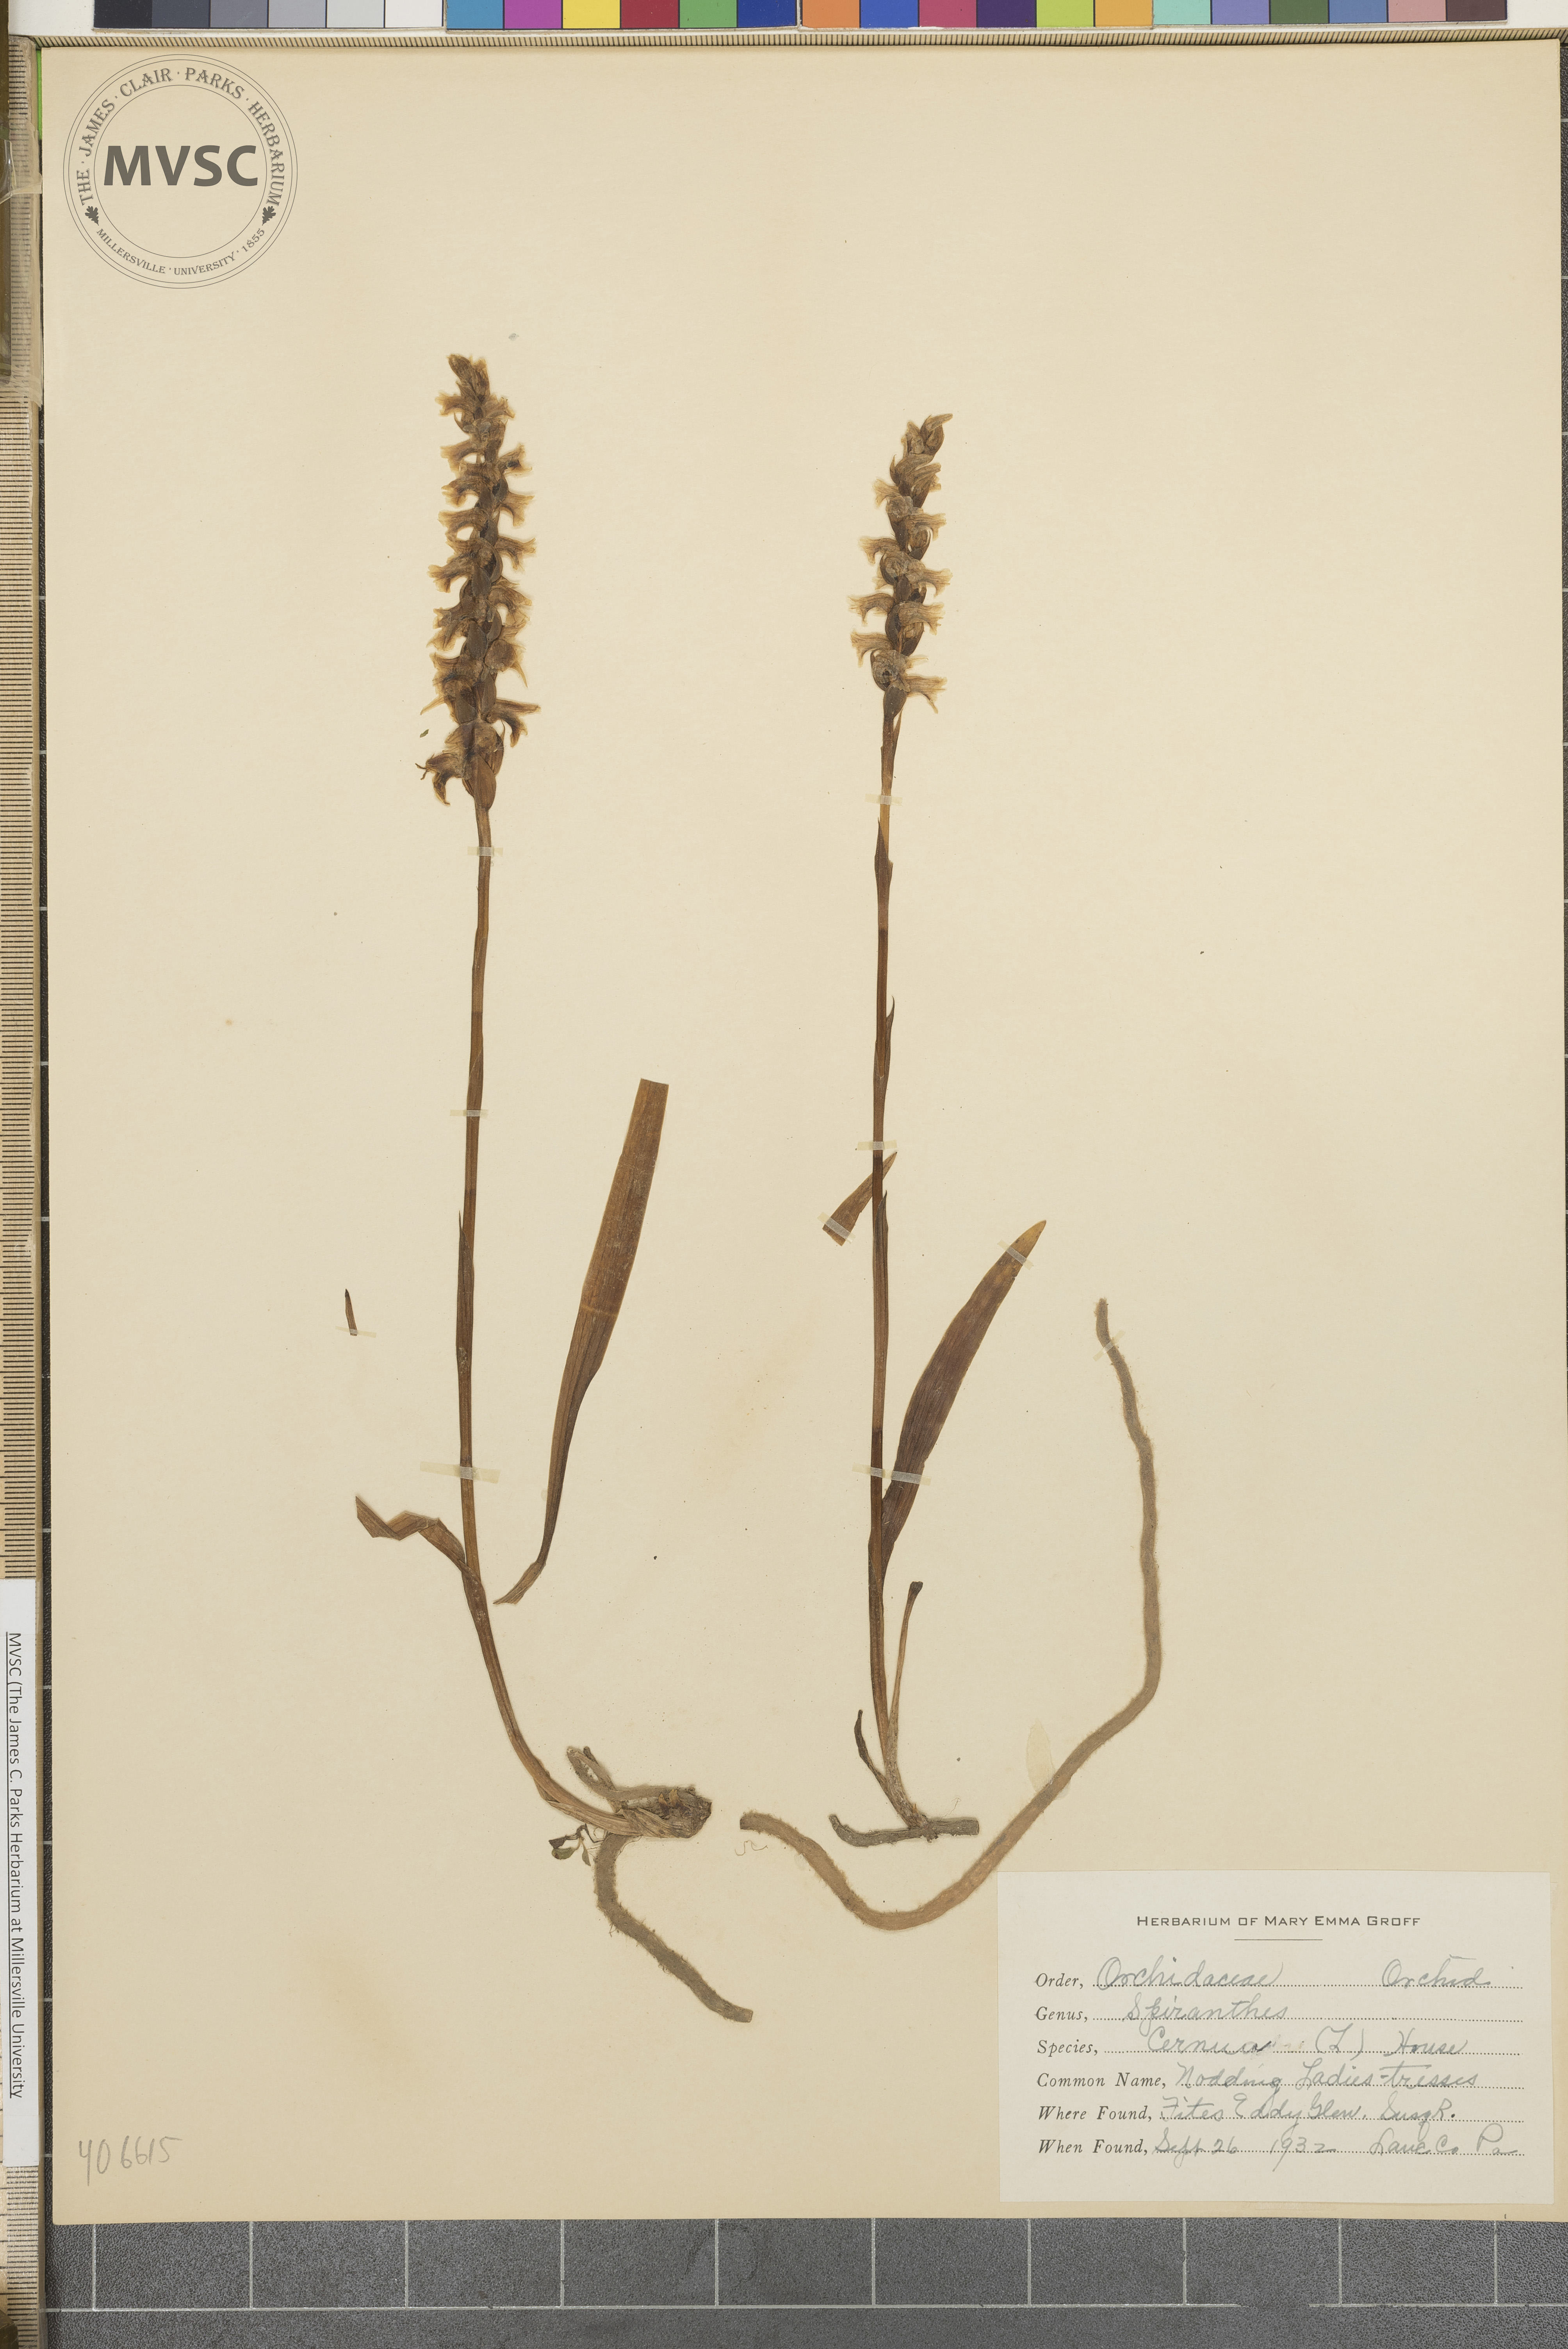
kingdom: Plantae
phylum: Tracheophyta
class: Liliopsida
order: Asparagales
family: Orchidaceae
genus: Spiranthes
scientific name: Spiranthes cernua
